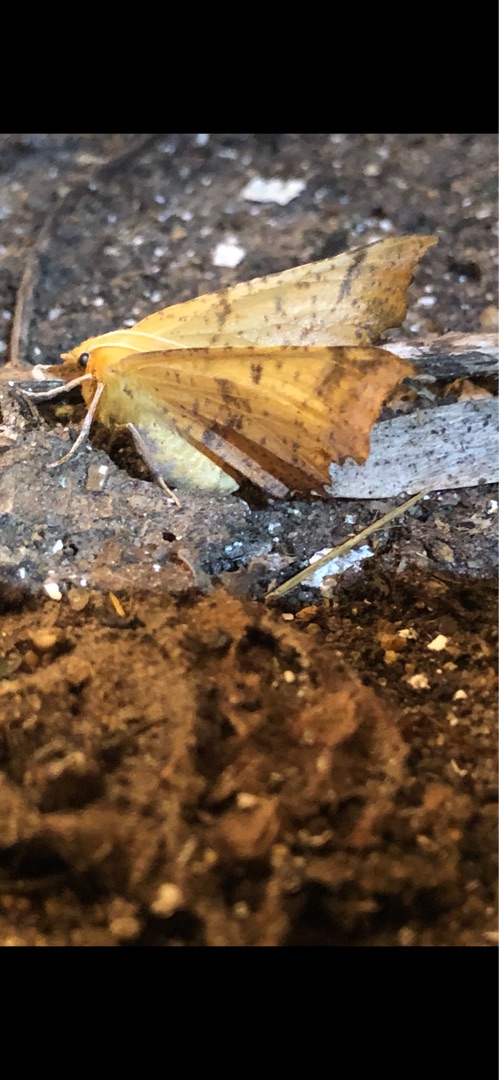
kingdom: Animalia
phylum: Arthropoda
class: Insecta
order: Lepidoptera
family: Geometridae
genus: Ennomos
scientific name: Ennomos autumnaria
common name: Stor tandmåler
